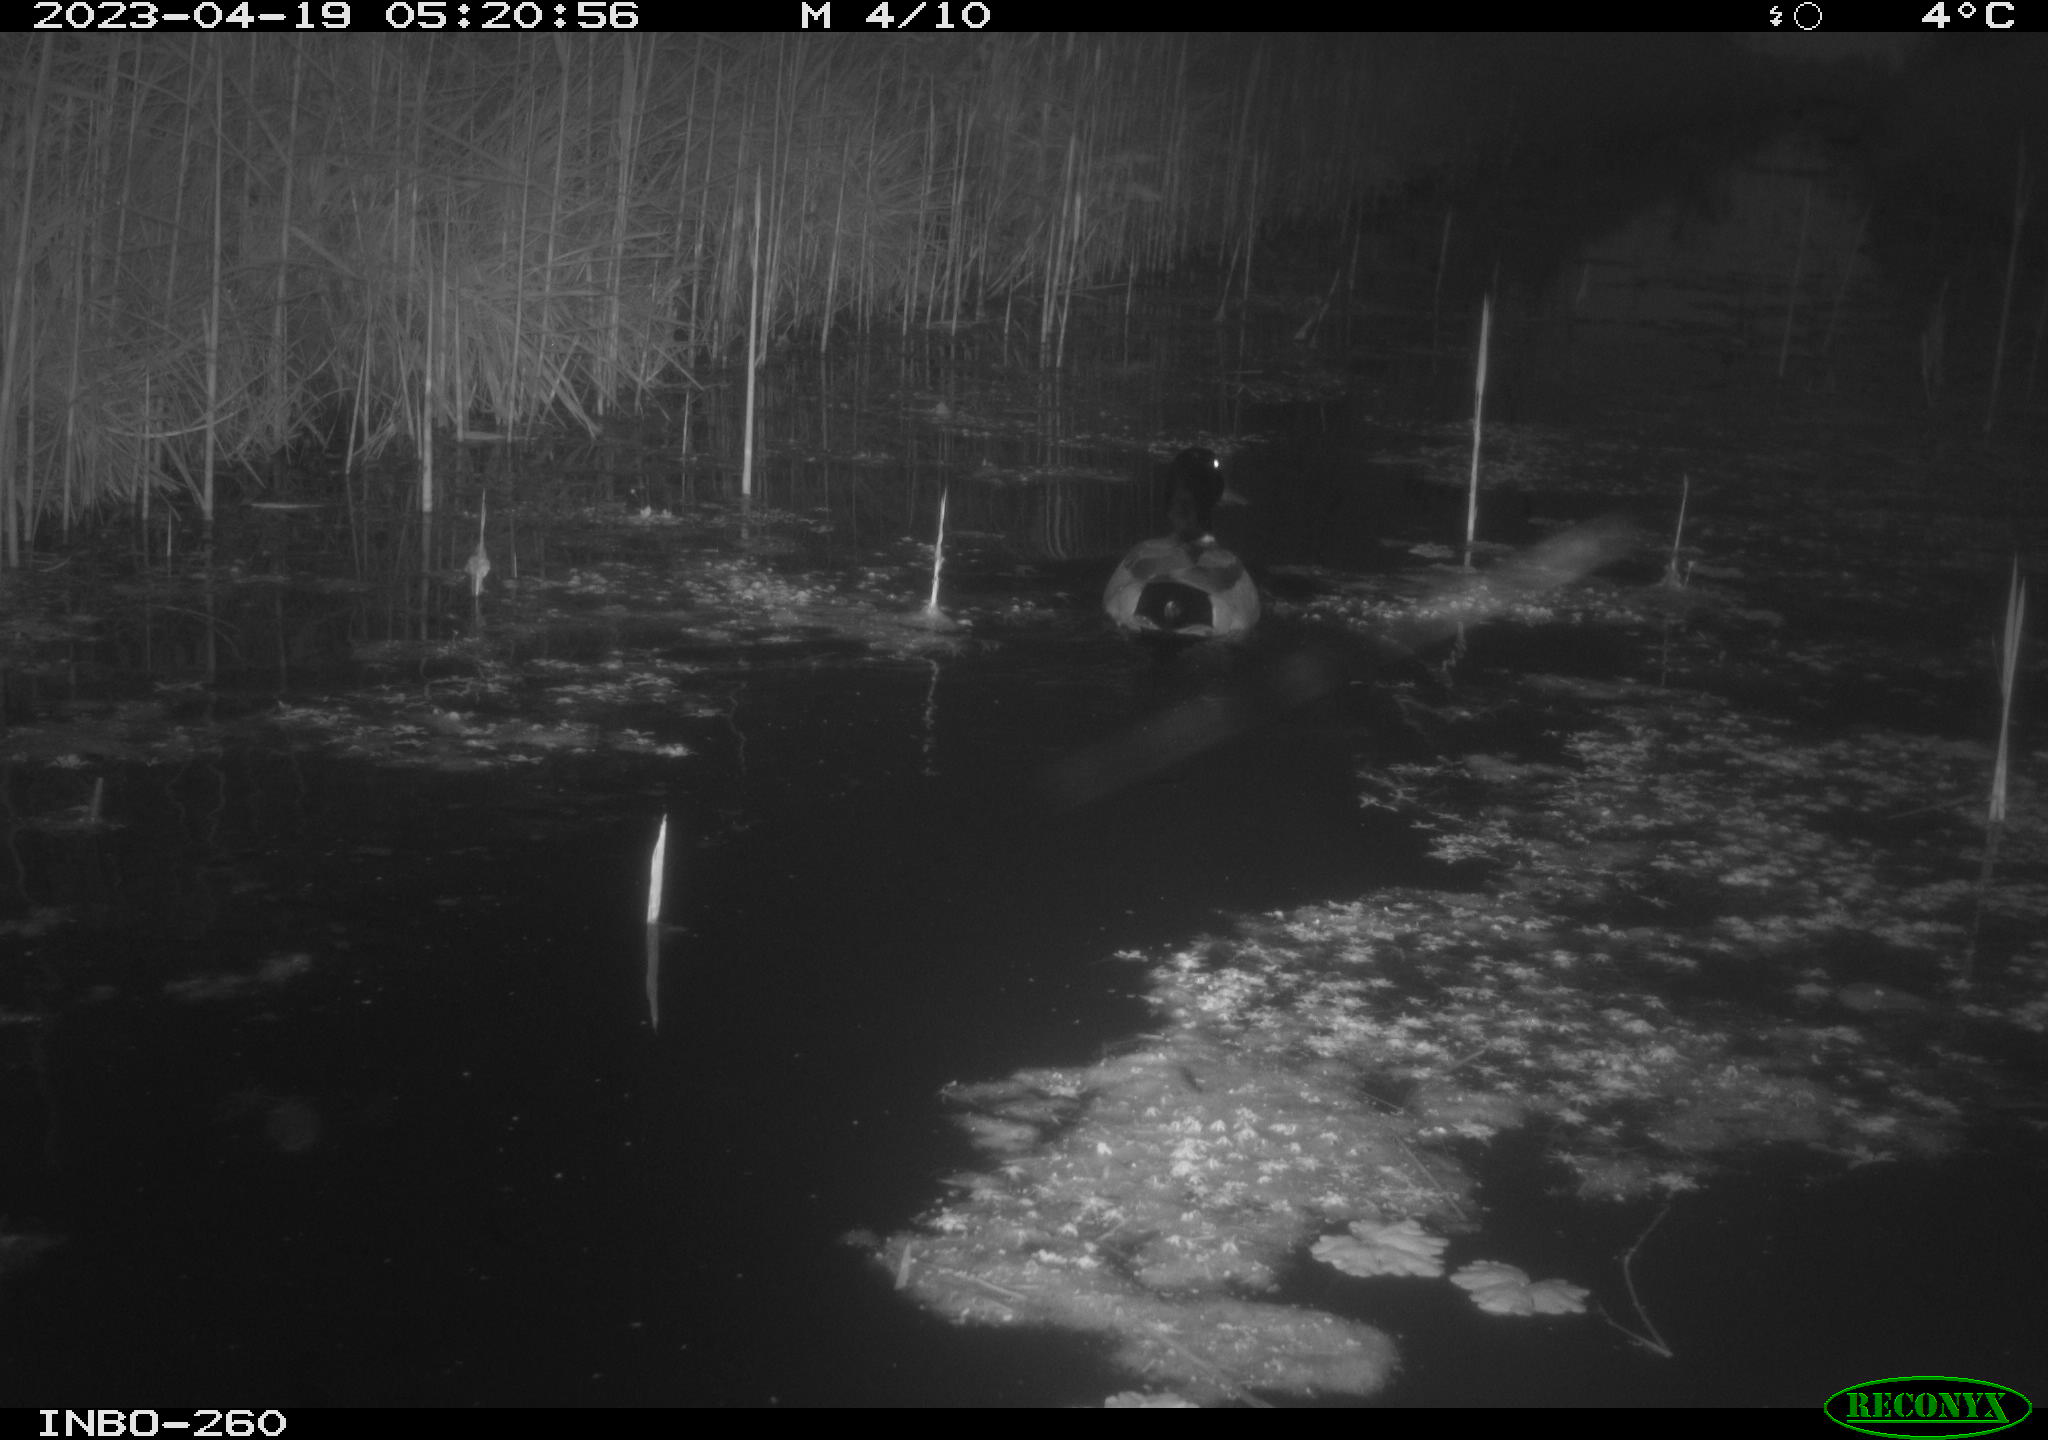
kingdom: Animalia
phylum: Chordata
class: Aves
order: Anseriformes
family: Anatidae
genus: Anas
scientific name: Anas
